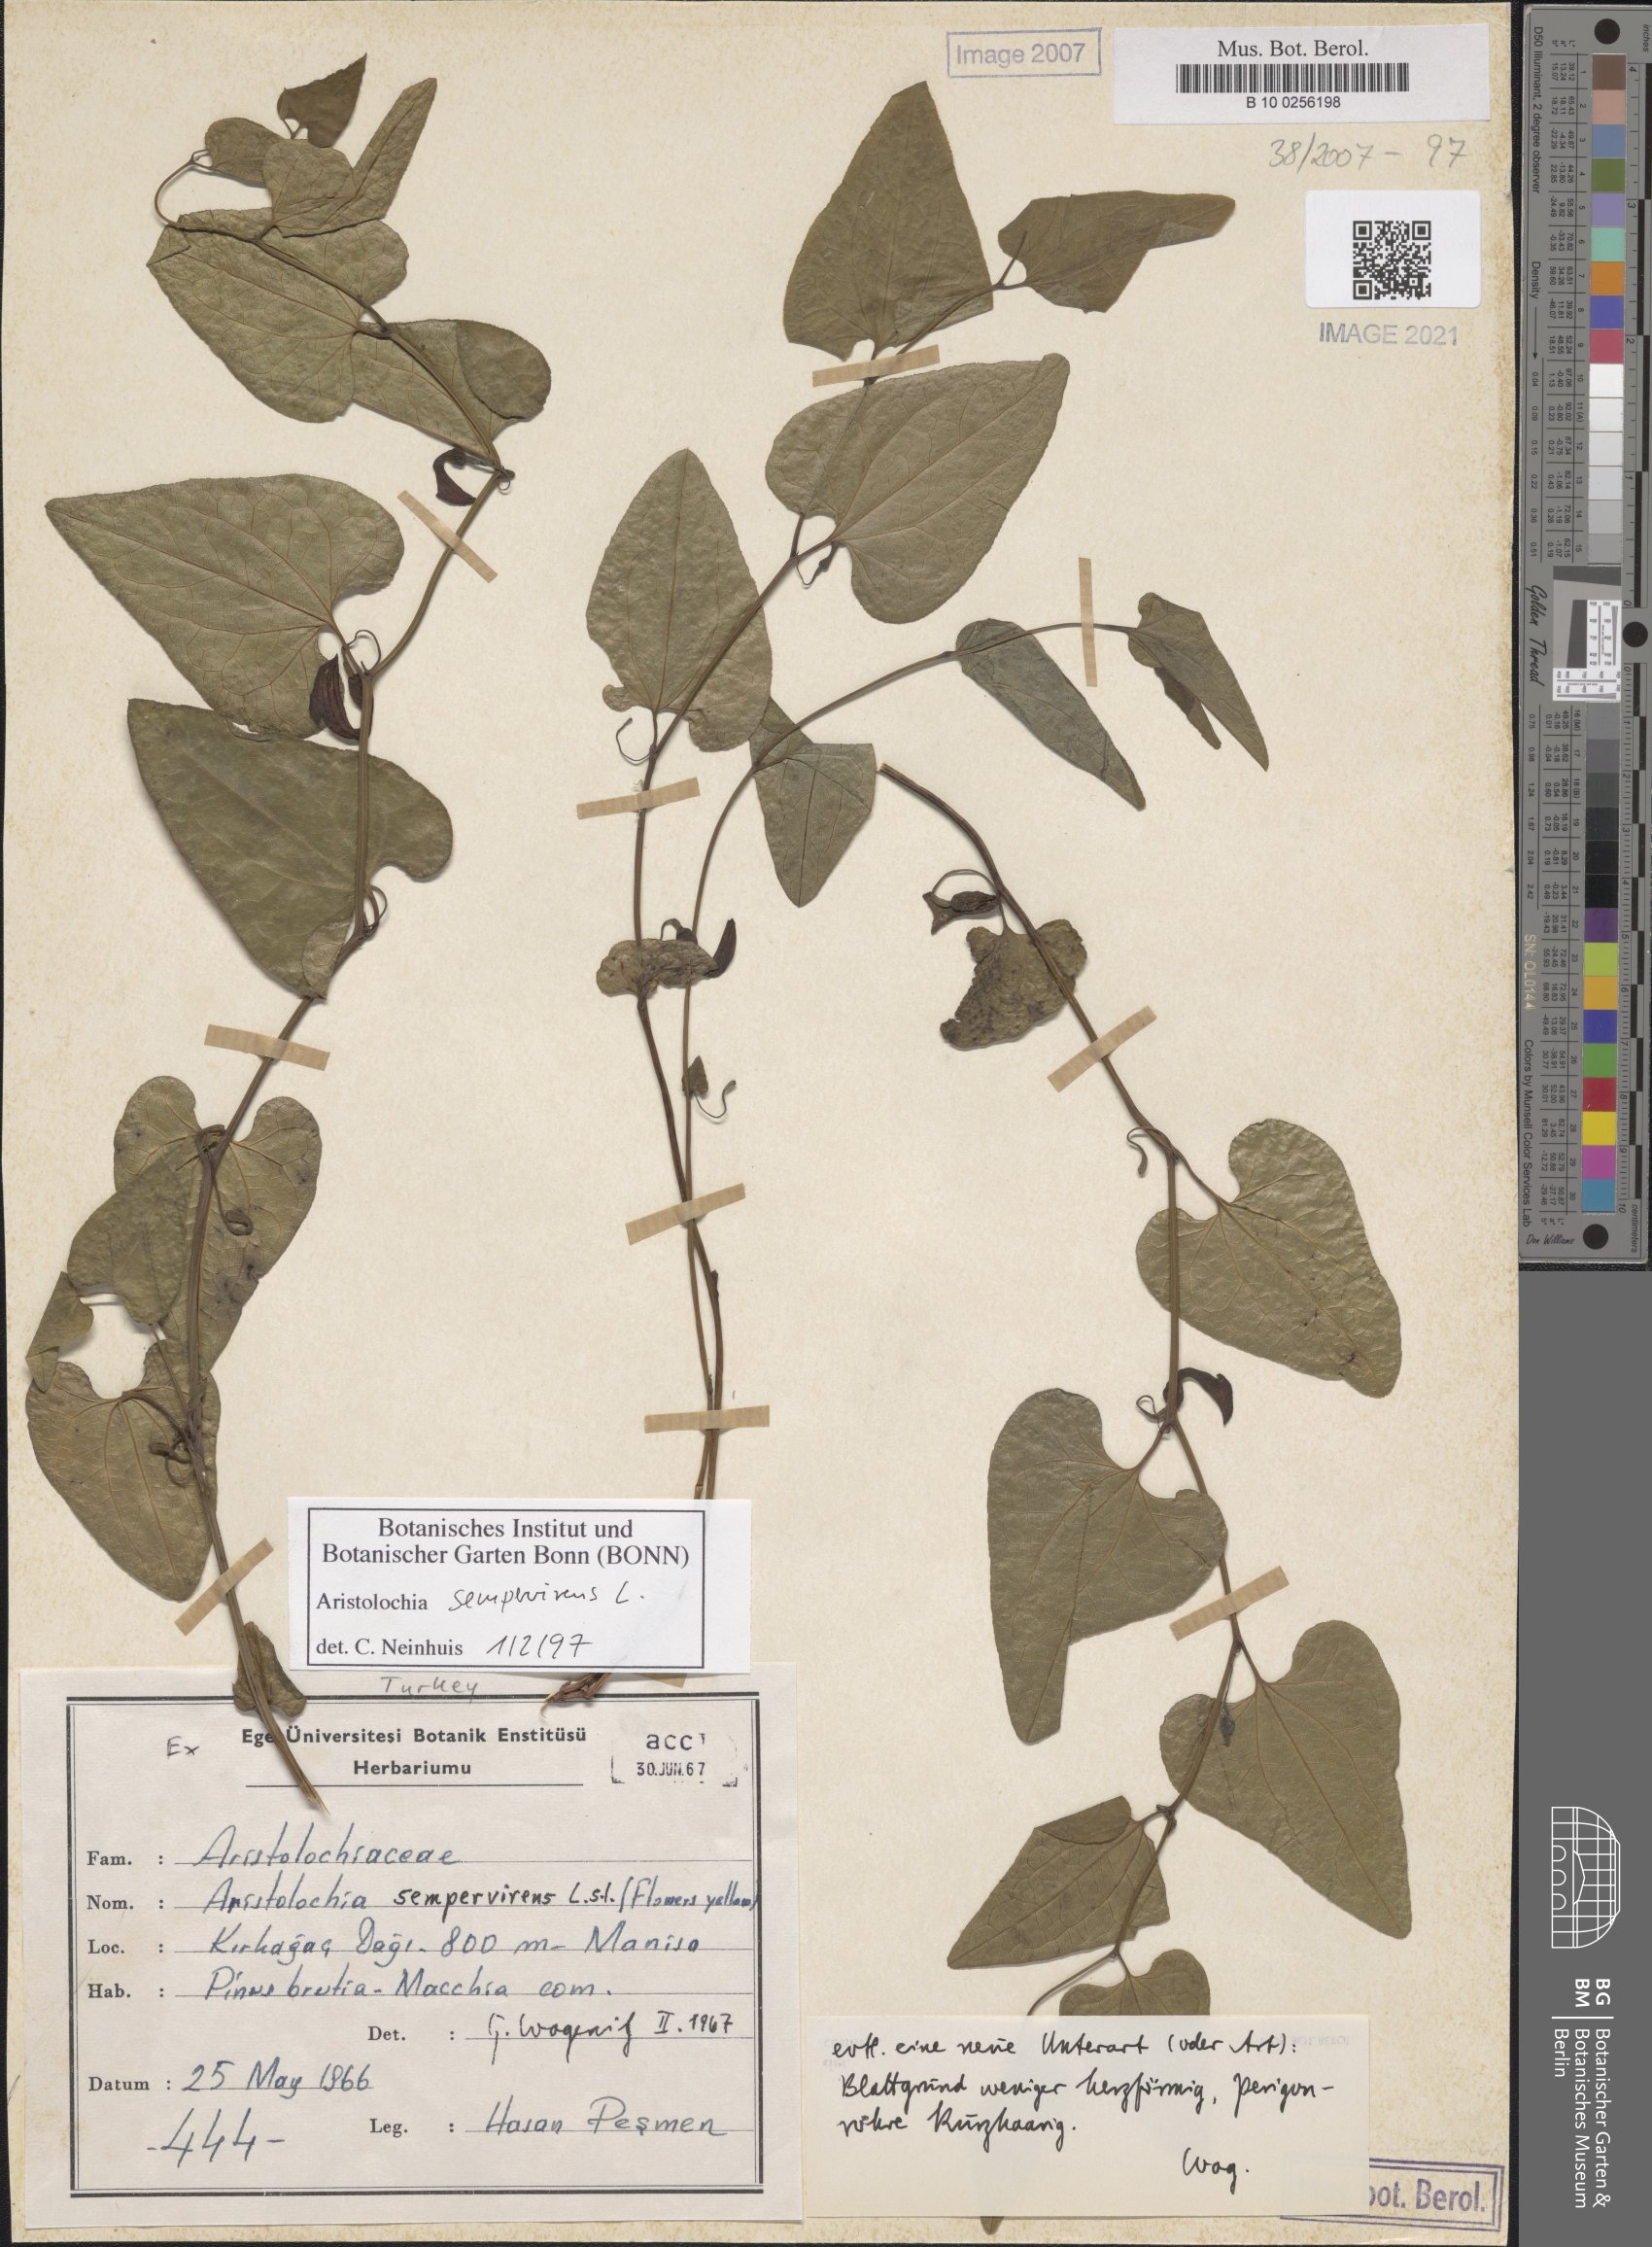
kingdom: Plantae
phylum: Tracheophyta
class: Magnoliopsida
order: Piperales
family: Aristolochiaceae
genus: Aristolochia
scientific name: Aristolochia sempervirens
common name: Long birthwort
